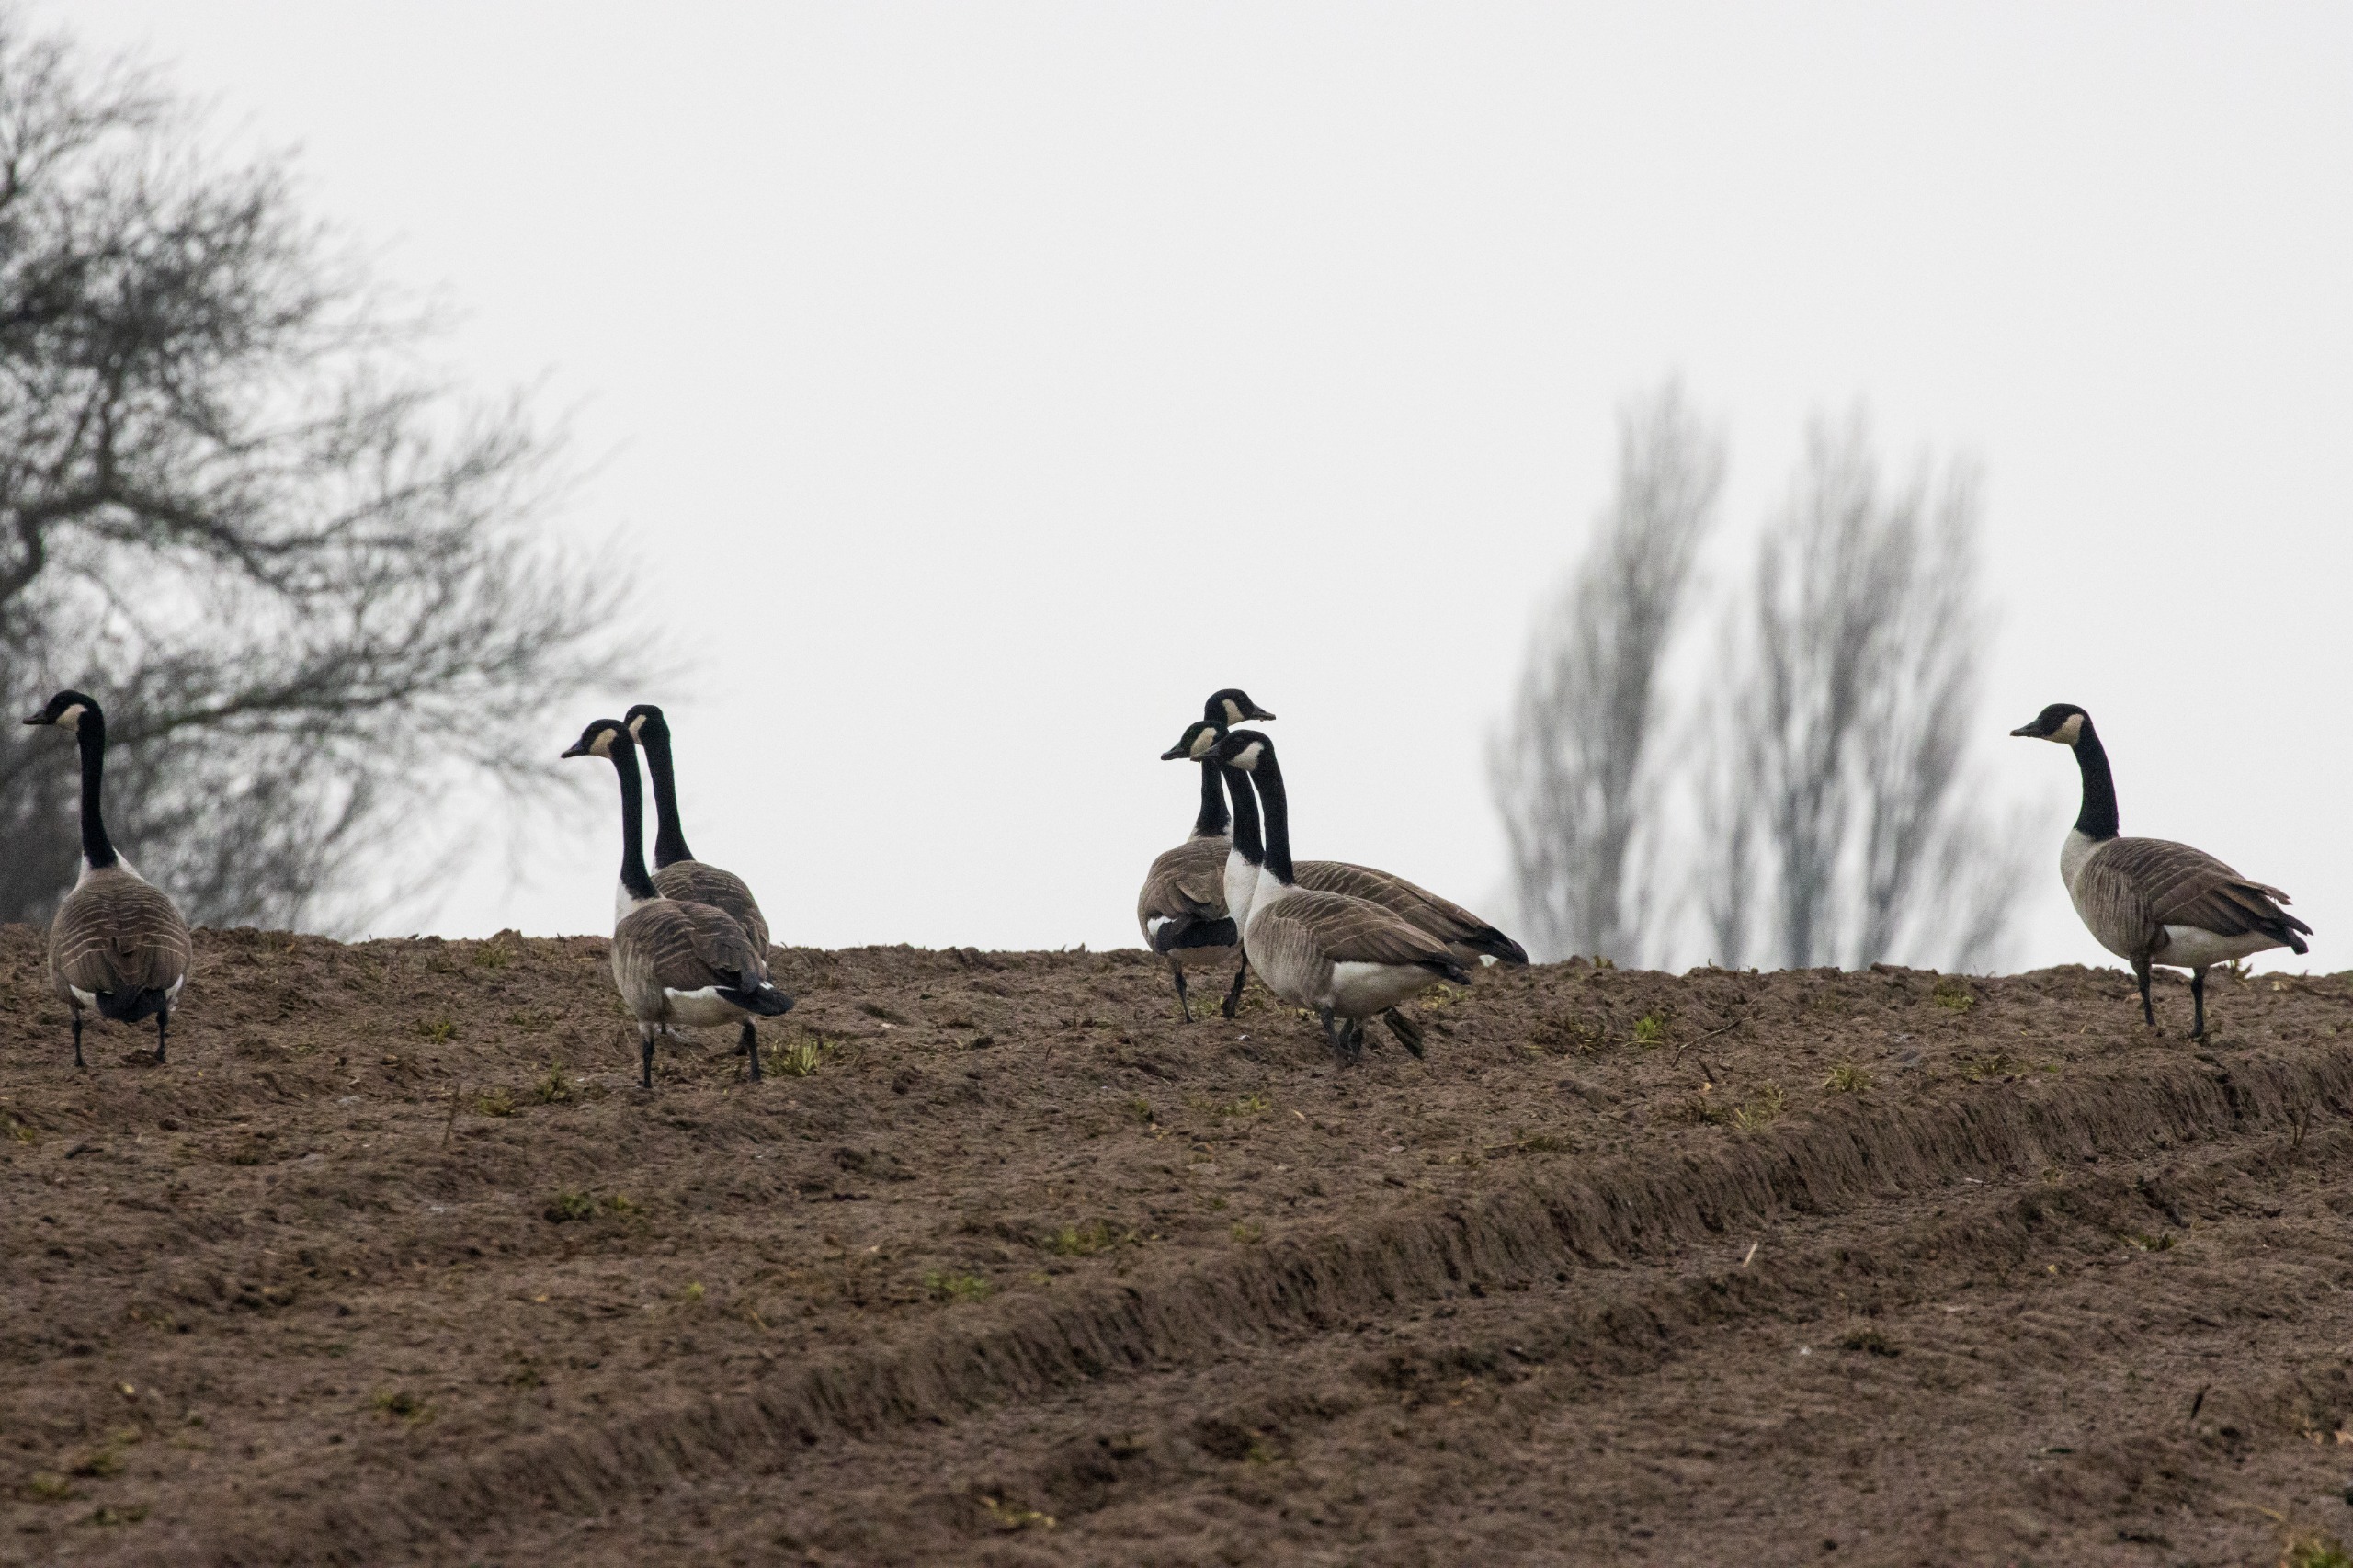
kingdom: Animalia
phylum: Chordata
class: Aves
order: Anseriformes
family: Anatidae
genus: Branta
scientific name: Branta canadensis
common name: Canadagås
